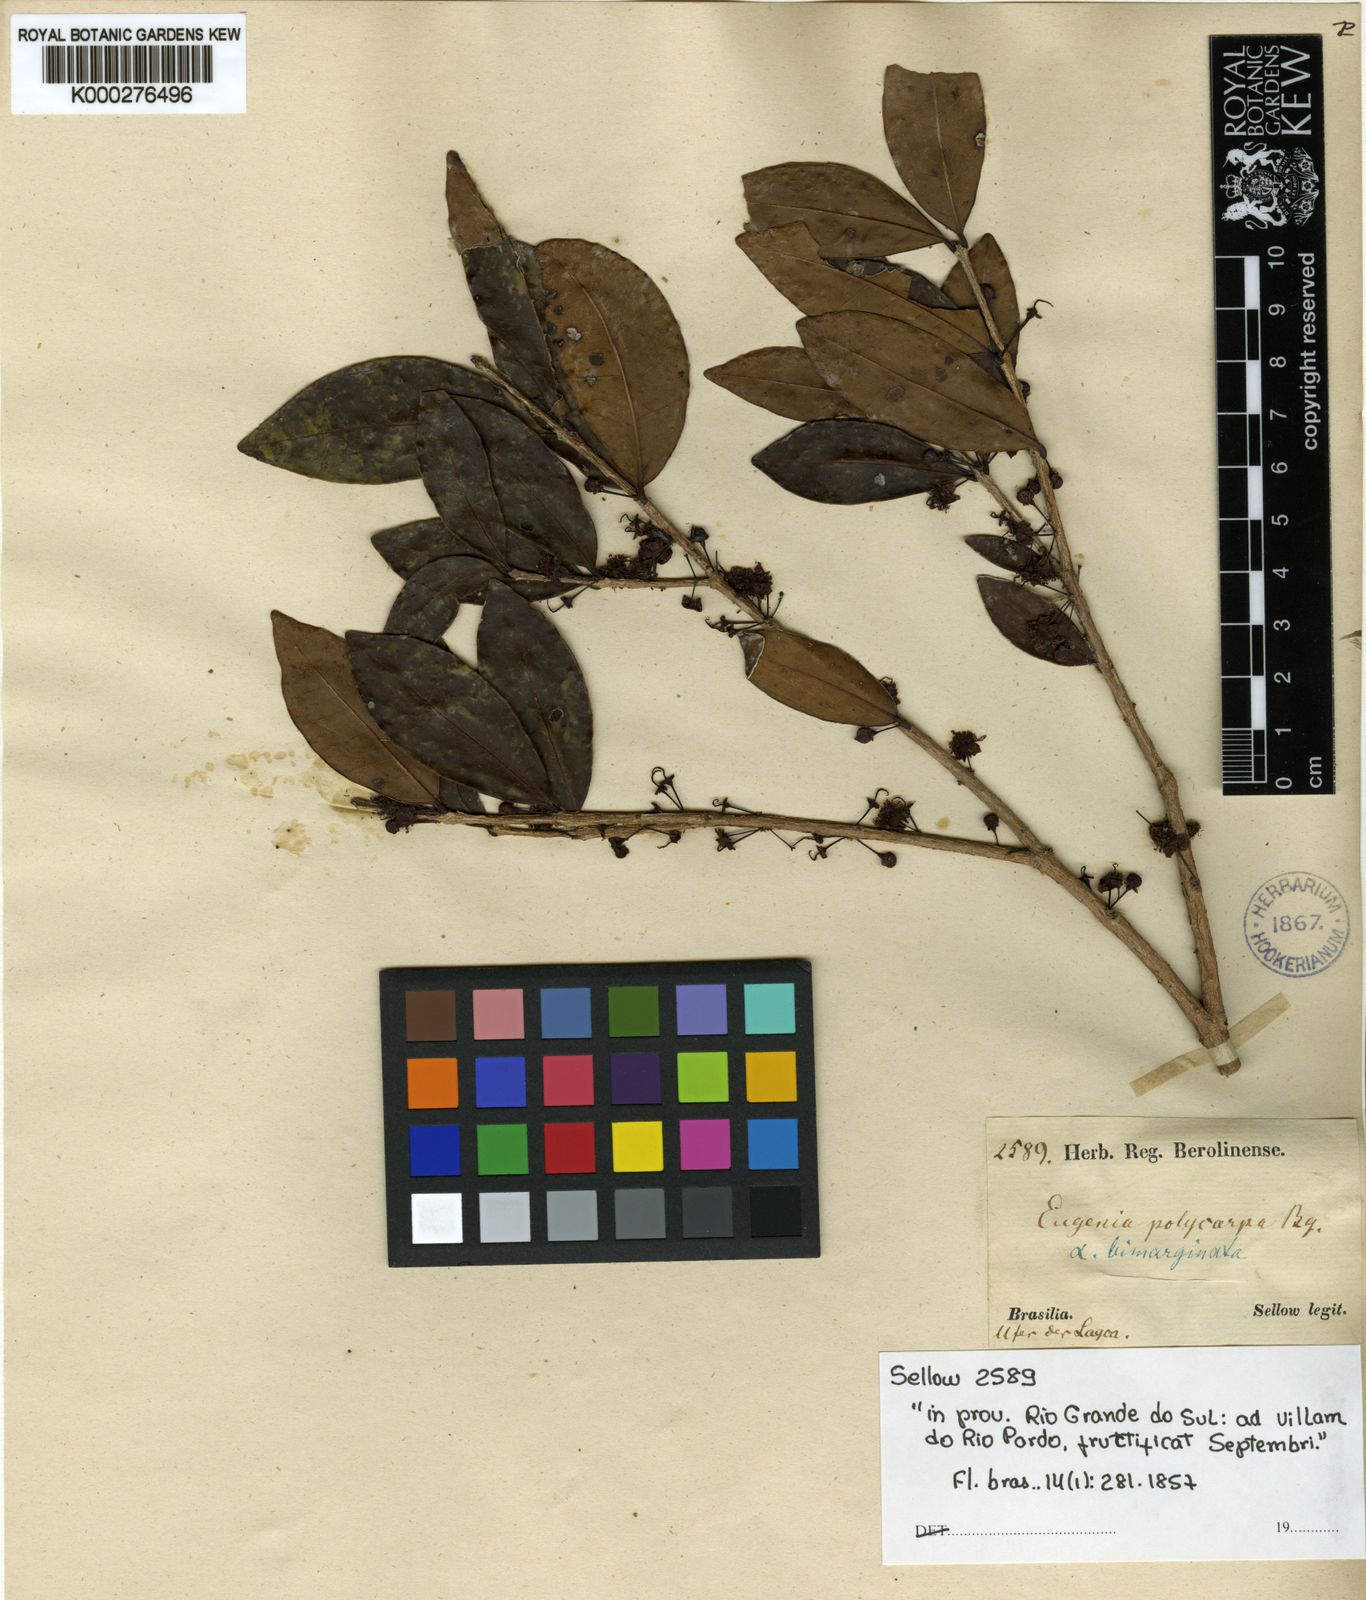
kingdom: Plantae
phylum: Tracheophyta
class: Magnoliopsida
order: Myrtales
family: Myrtaceae
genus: Eugenia
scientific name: Eugenia hiemalis
